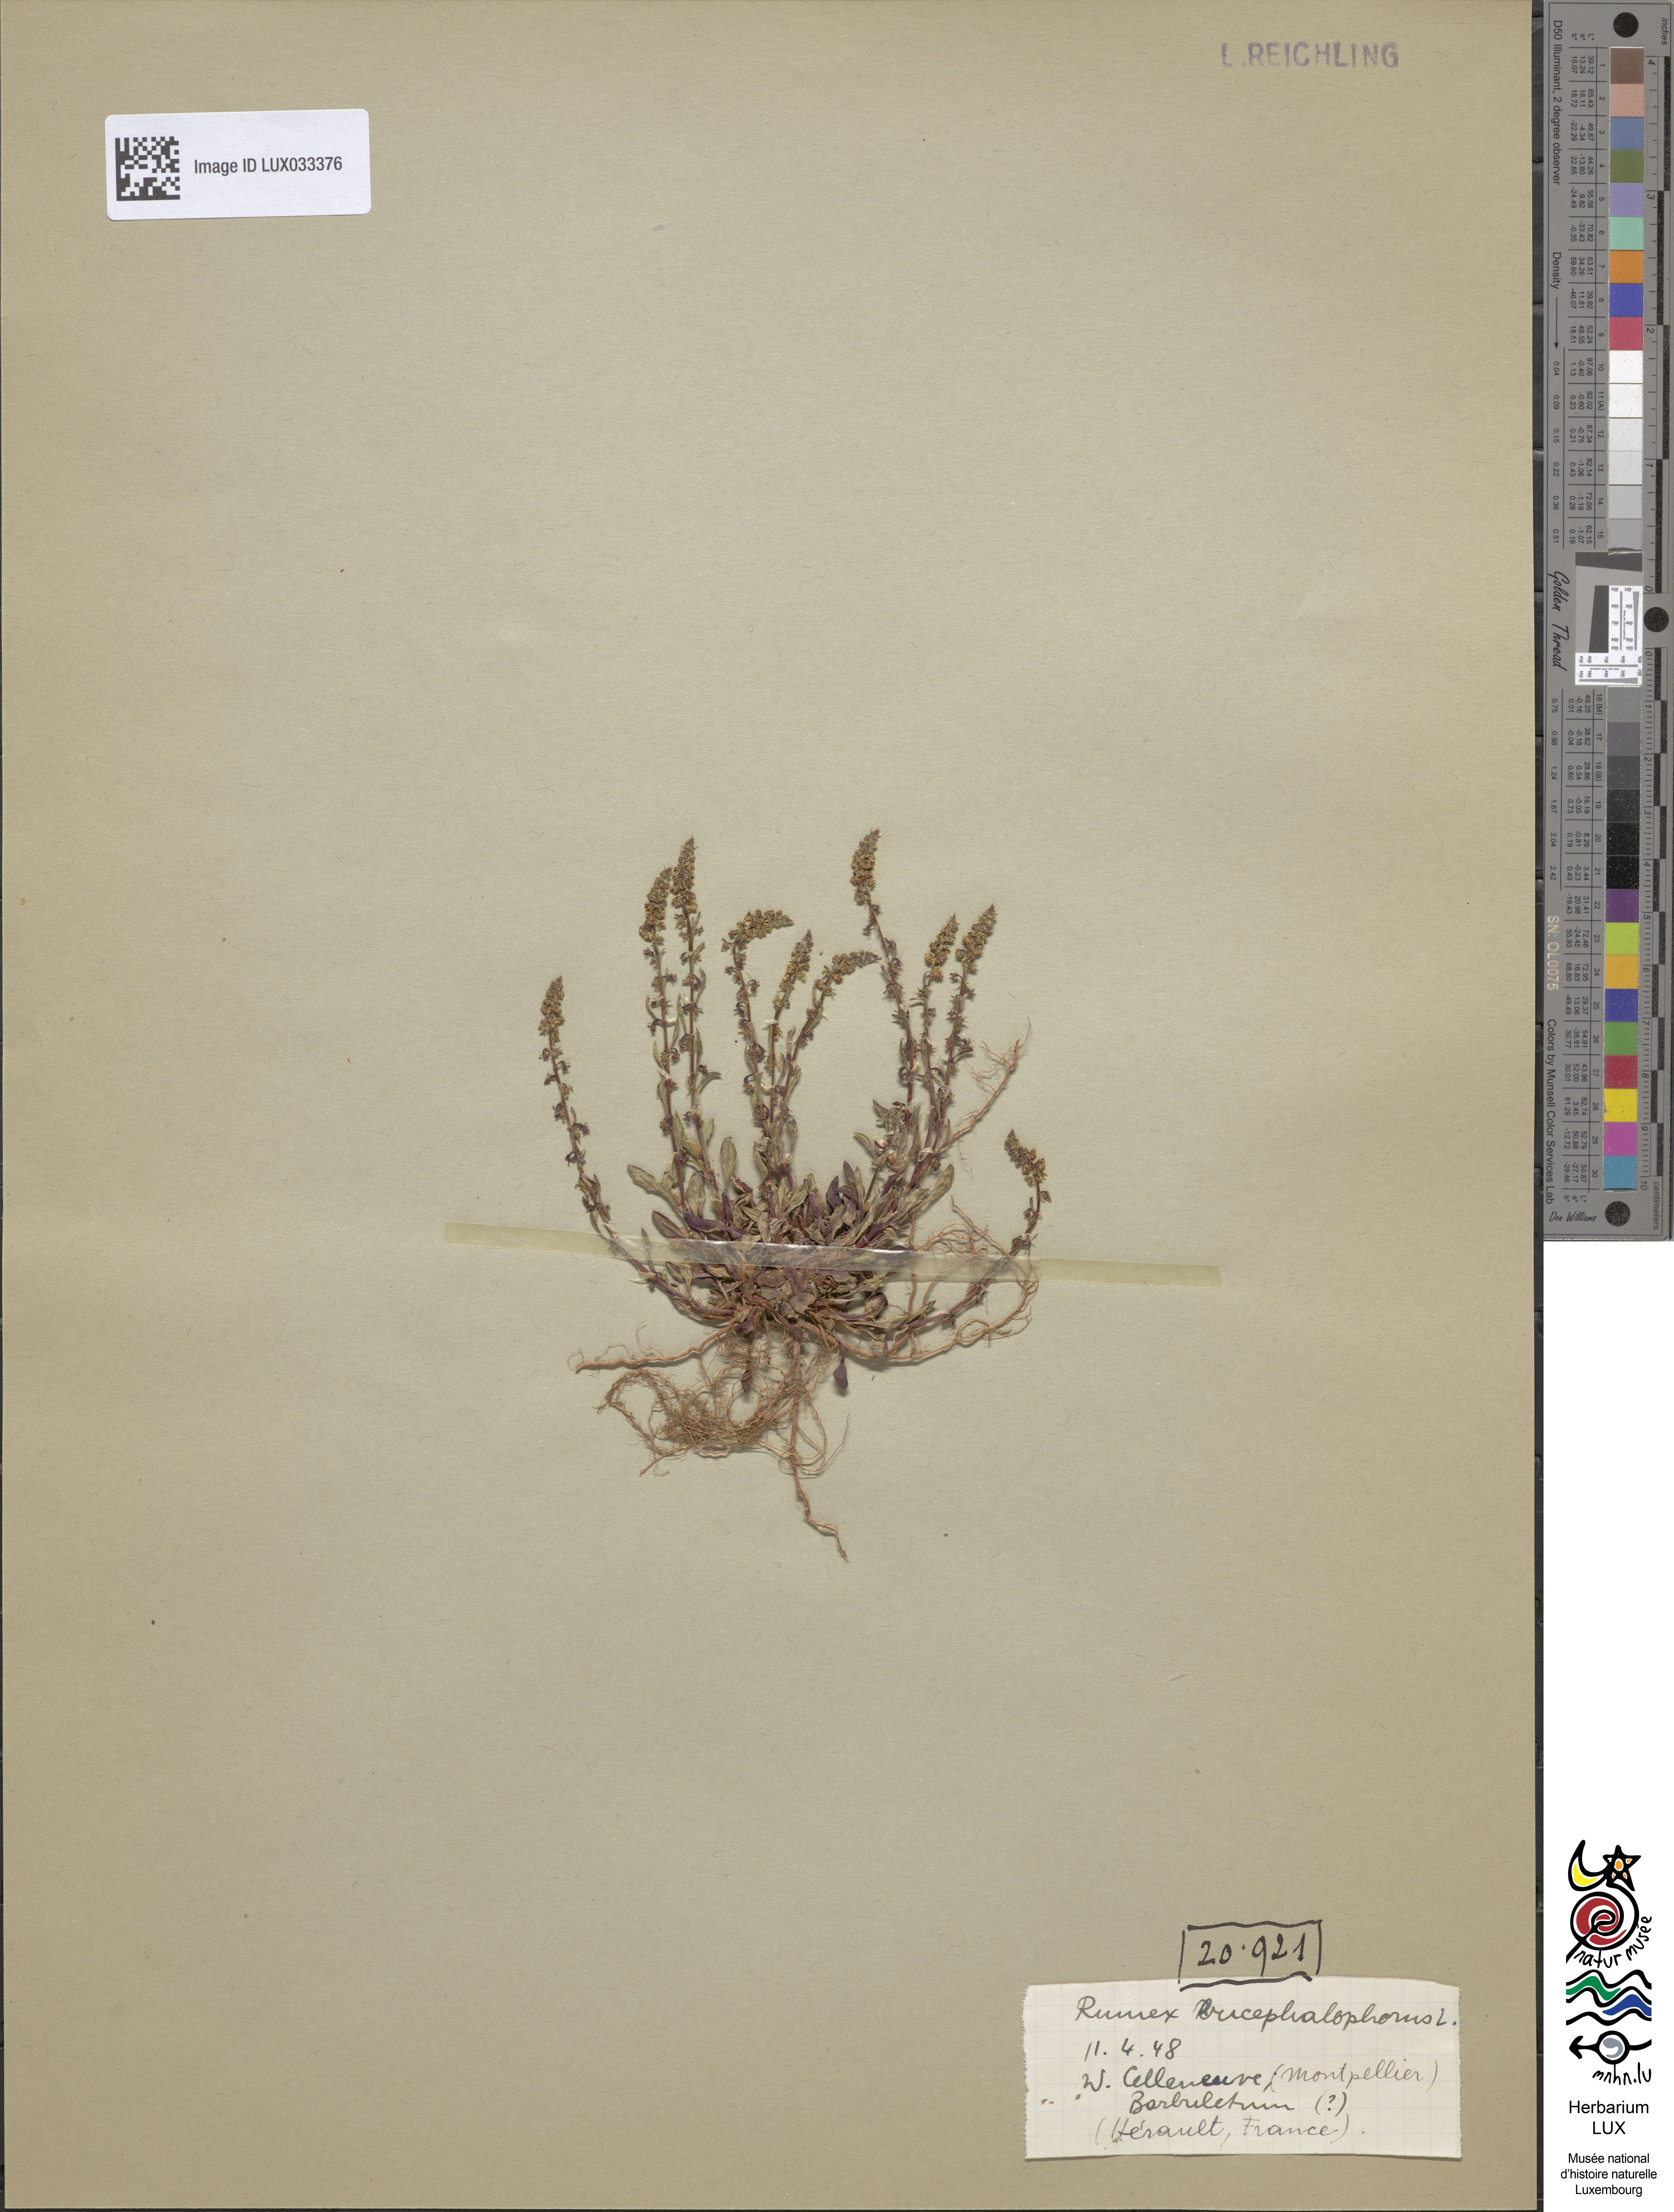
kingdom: Plantae
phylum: Tracheophyta
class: Magnoliopsida
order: Caryophyllales
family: Polygonaceae
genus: Rumex
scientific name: Rumex bucephalophorus
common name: Red dock
